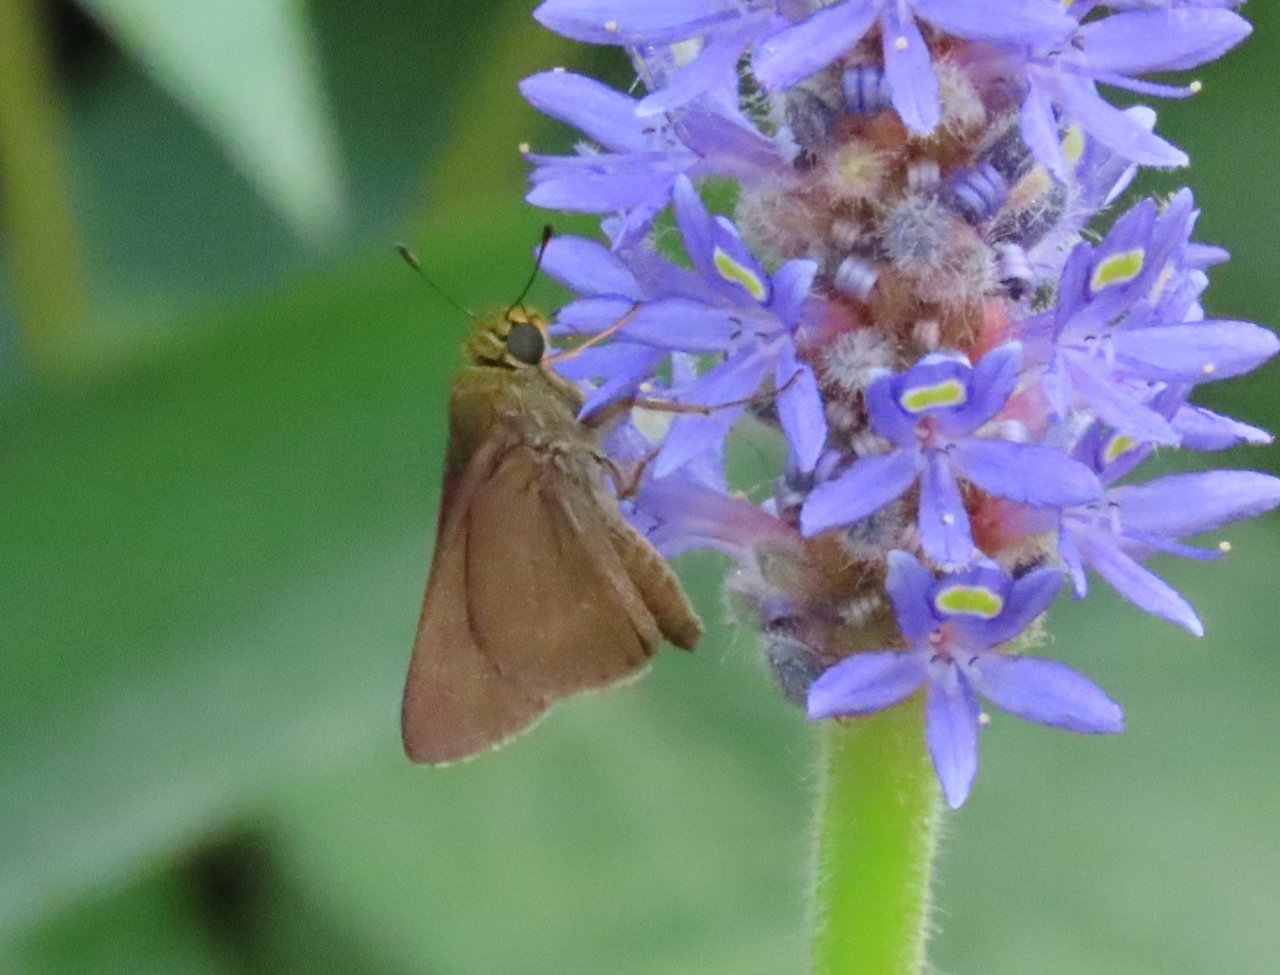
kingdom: Animalia
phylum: Arthropoda
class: Insecta
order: Lepidoptera
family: Hesperiidae
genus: Euphyes
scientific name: Euphyes vestris
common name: Dun Skipper
